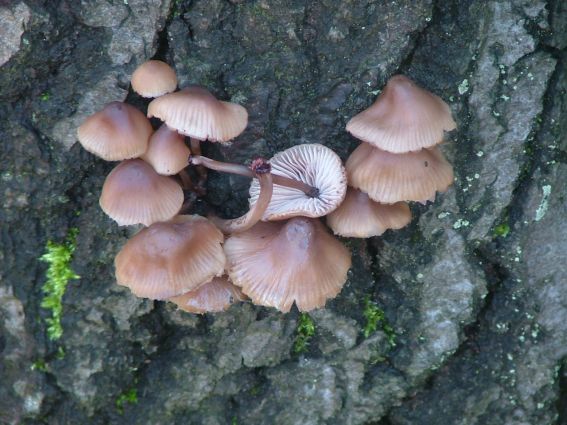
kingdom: Fungi
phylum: Basidiomycota
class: Agaricomycetes
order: Agaricales
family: Mycenaceae
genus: Mycena
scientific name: Mycena haematopus
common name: blødende huesvamp
